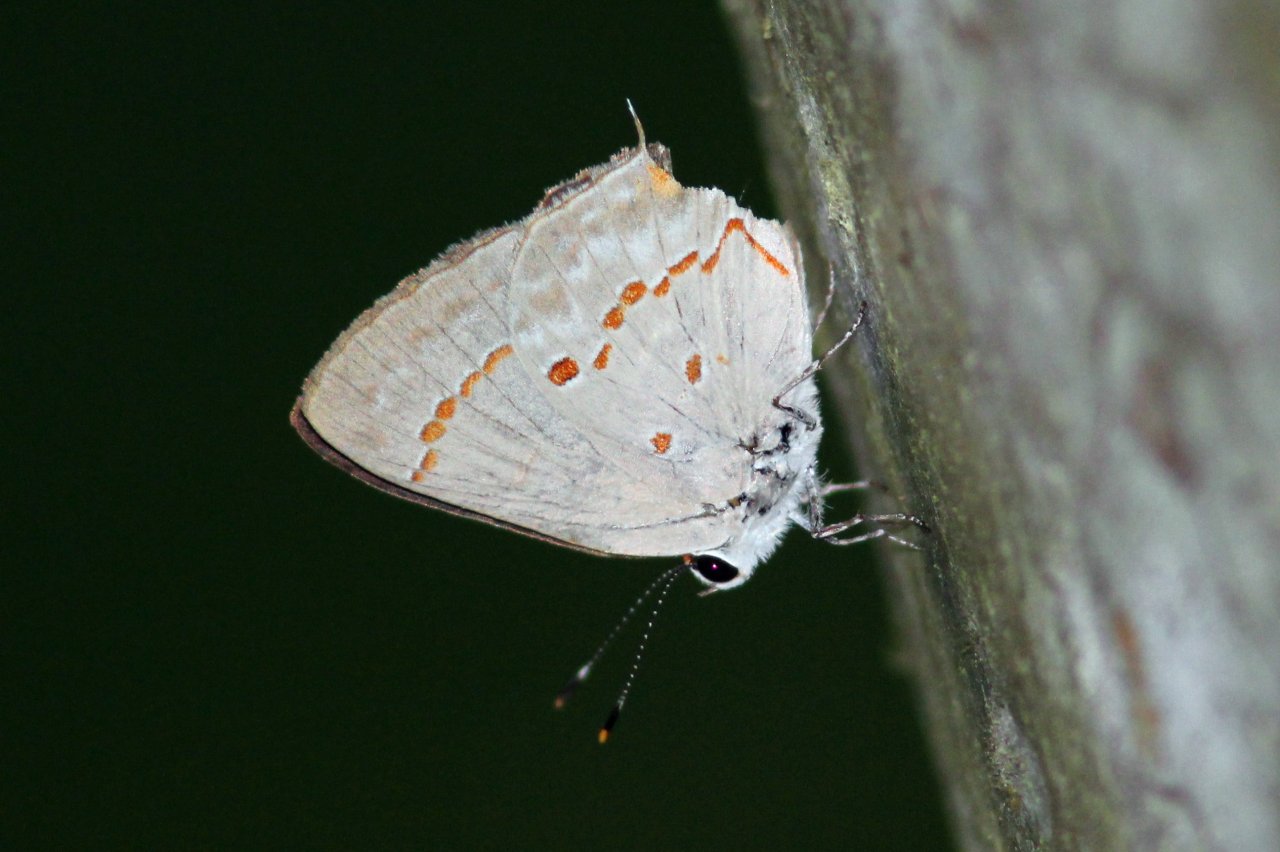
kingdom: Animalia
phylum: Arthropoda
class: Insecta
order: Lepidoptera
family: Lycaenidae
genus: Thecla
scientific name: Thecla ziba
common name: Ziba Scrub-Hairstreak
